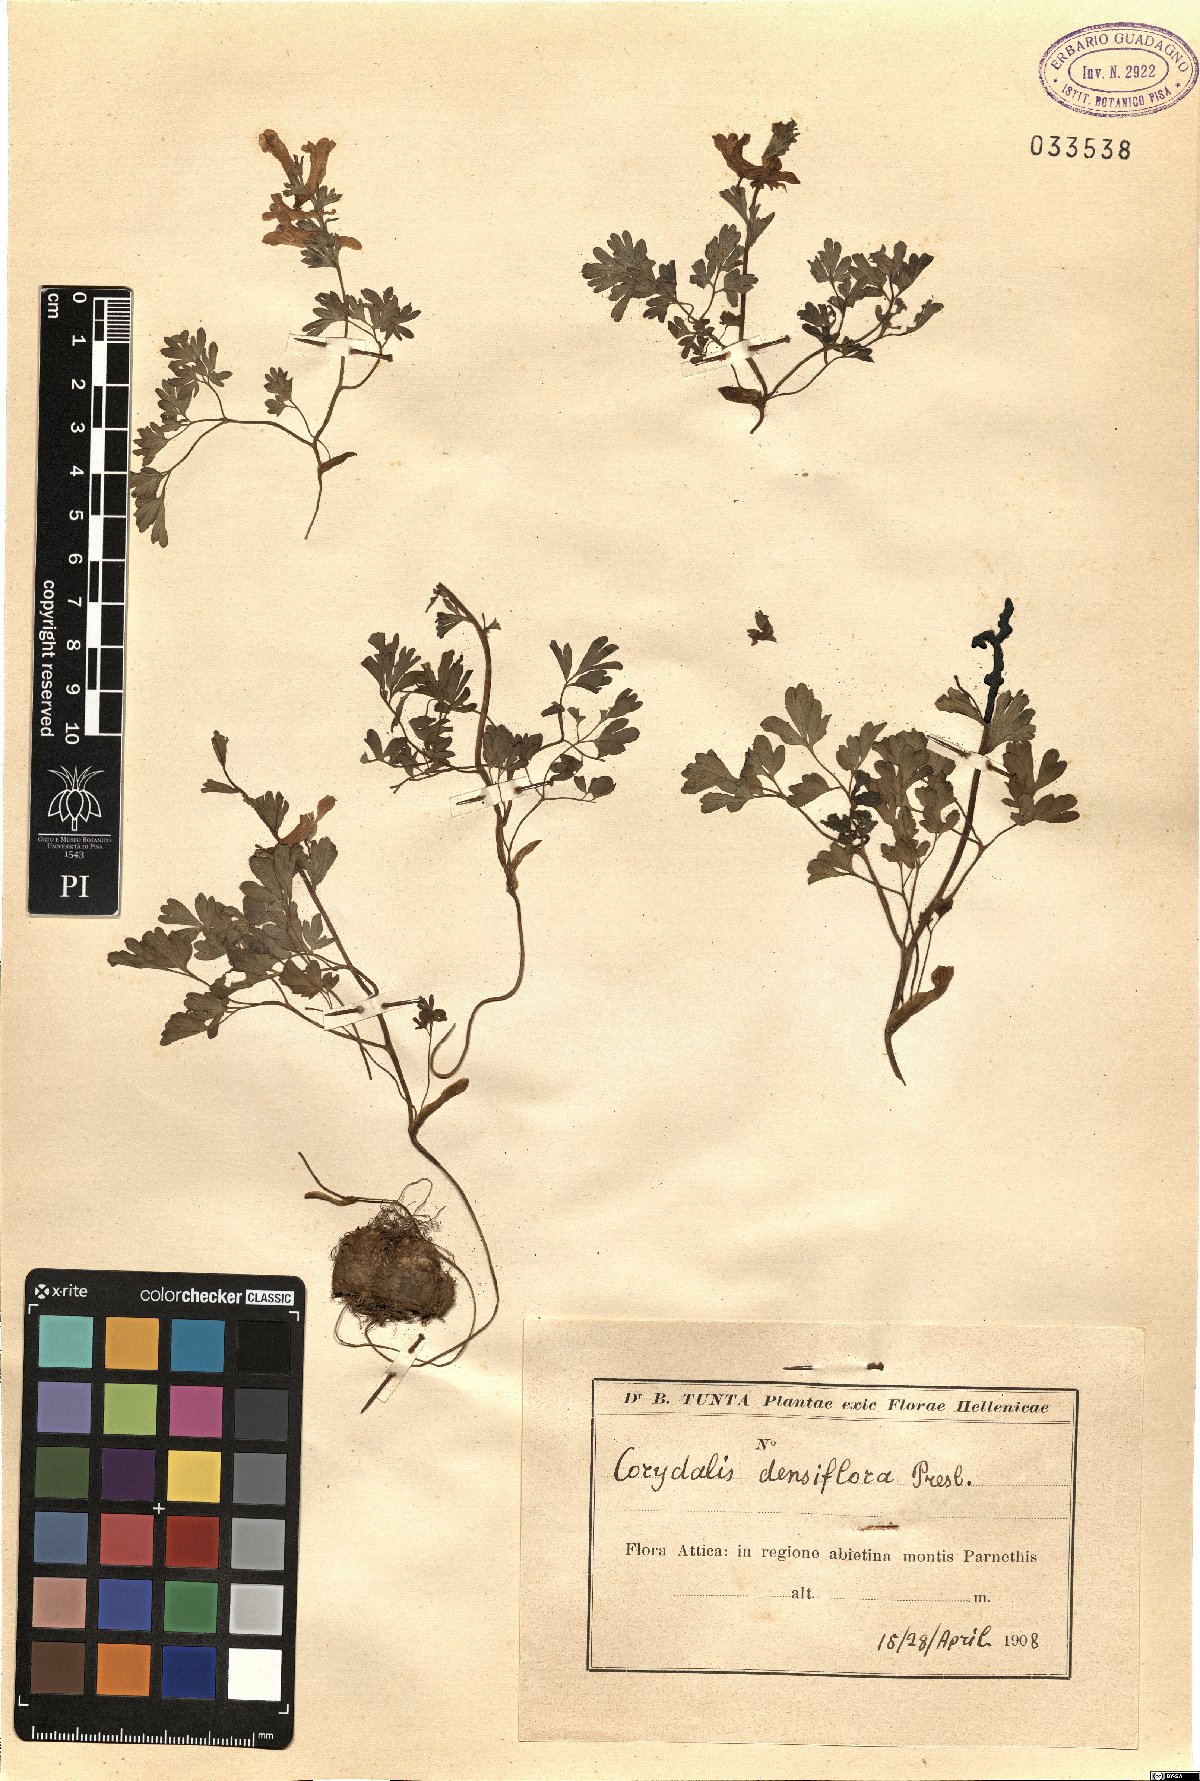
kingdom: Plantae
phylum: Tracheophyta
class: Magnoliopsida
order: Ranunculales
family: Papaveraceae
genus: Corydalis
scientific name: Corydalis densiflora
